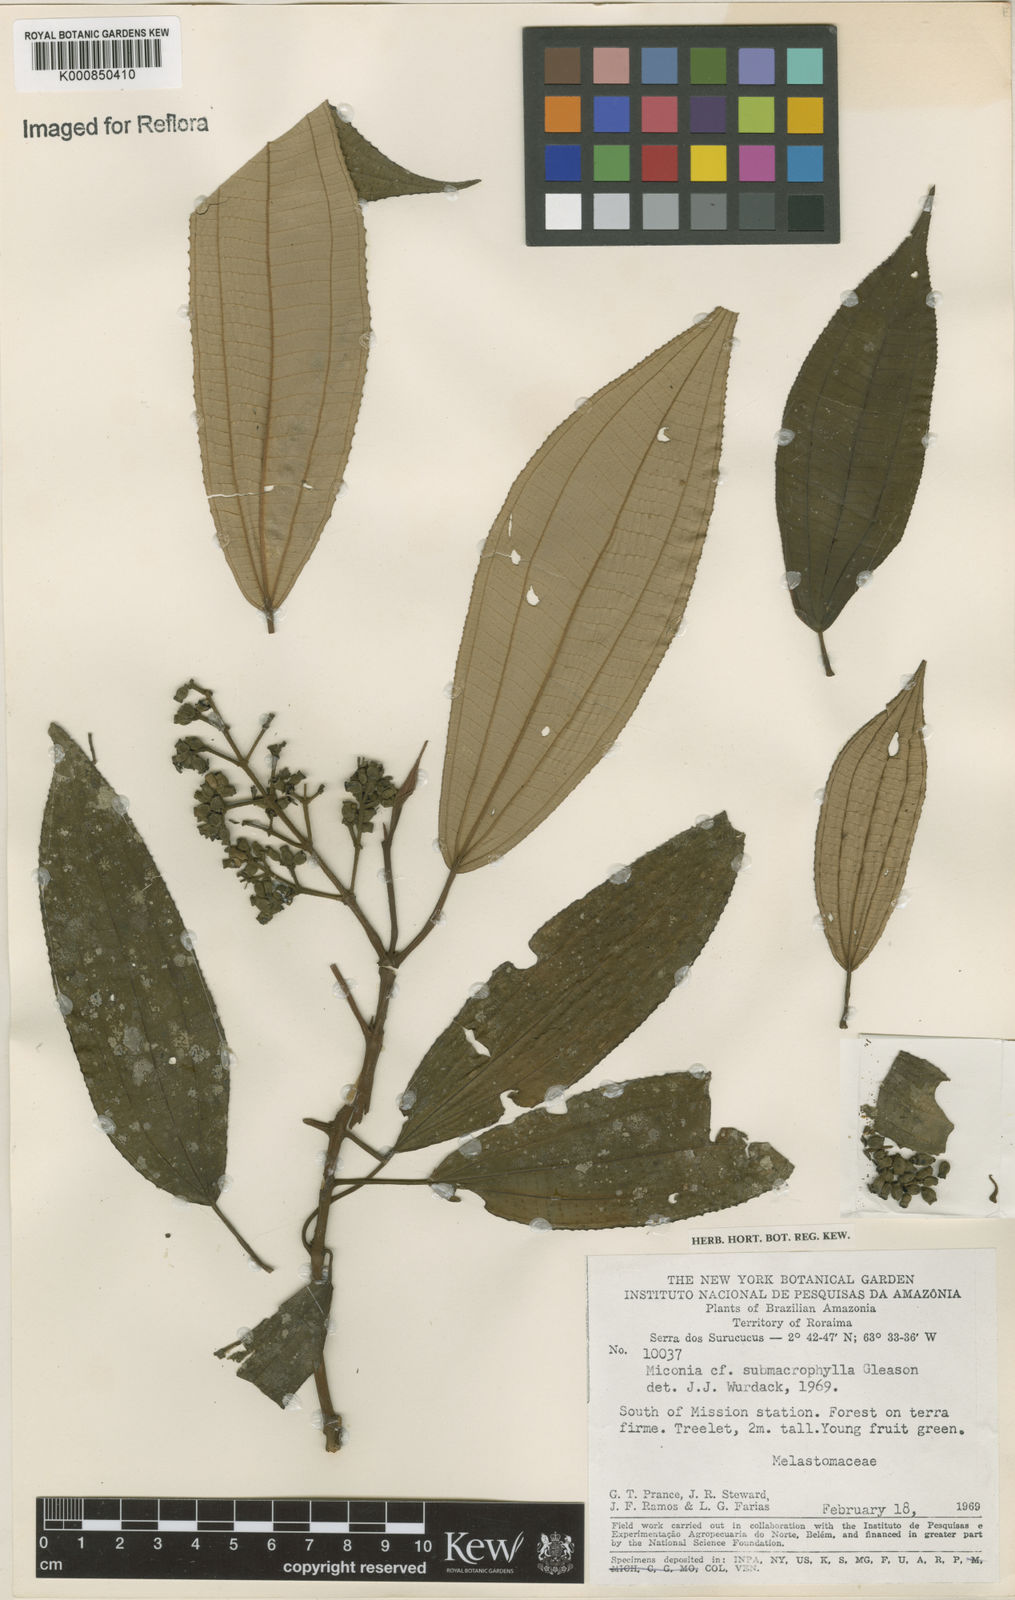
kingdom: Plantae
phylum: Tracheophyta
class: Magnoliopsida
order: Myrtales
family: Melastomataceae
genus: Miconia
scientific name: Miconia submacrophylla
